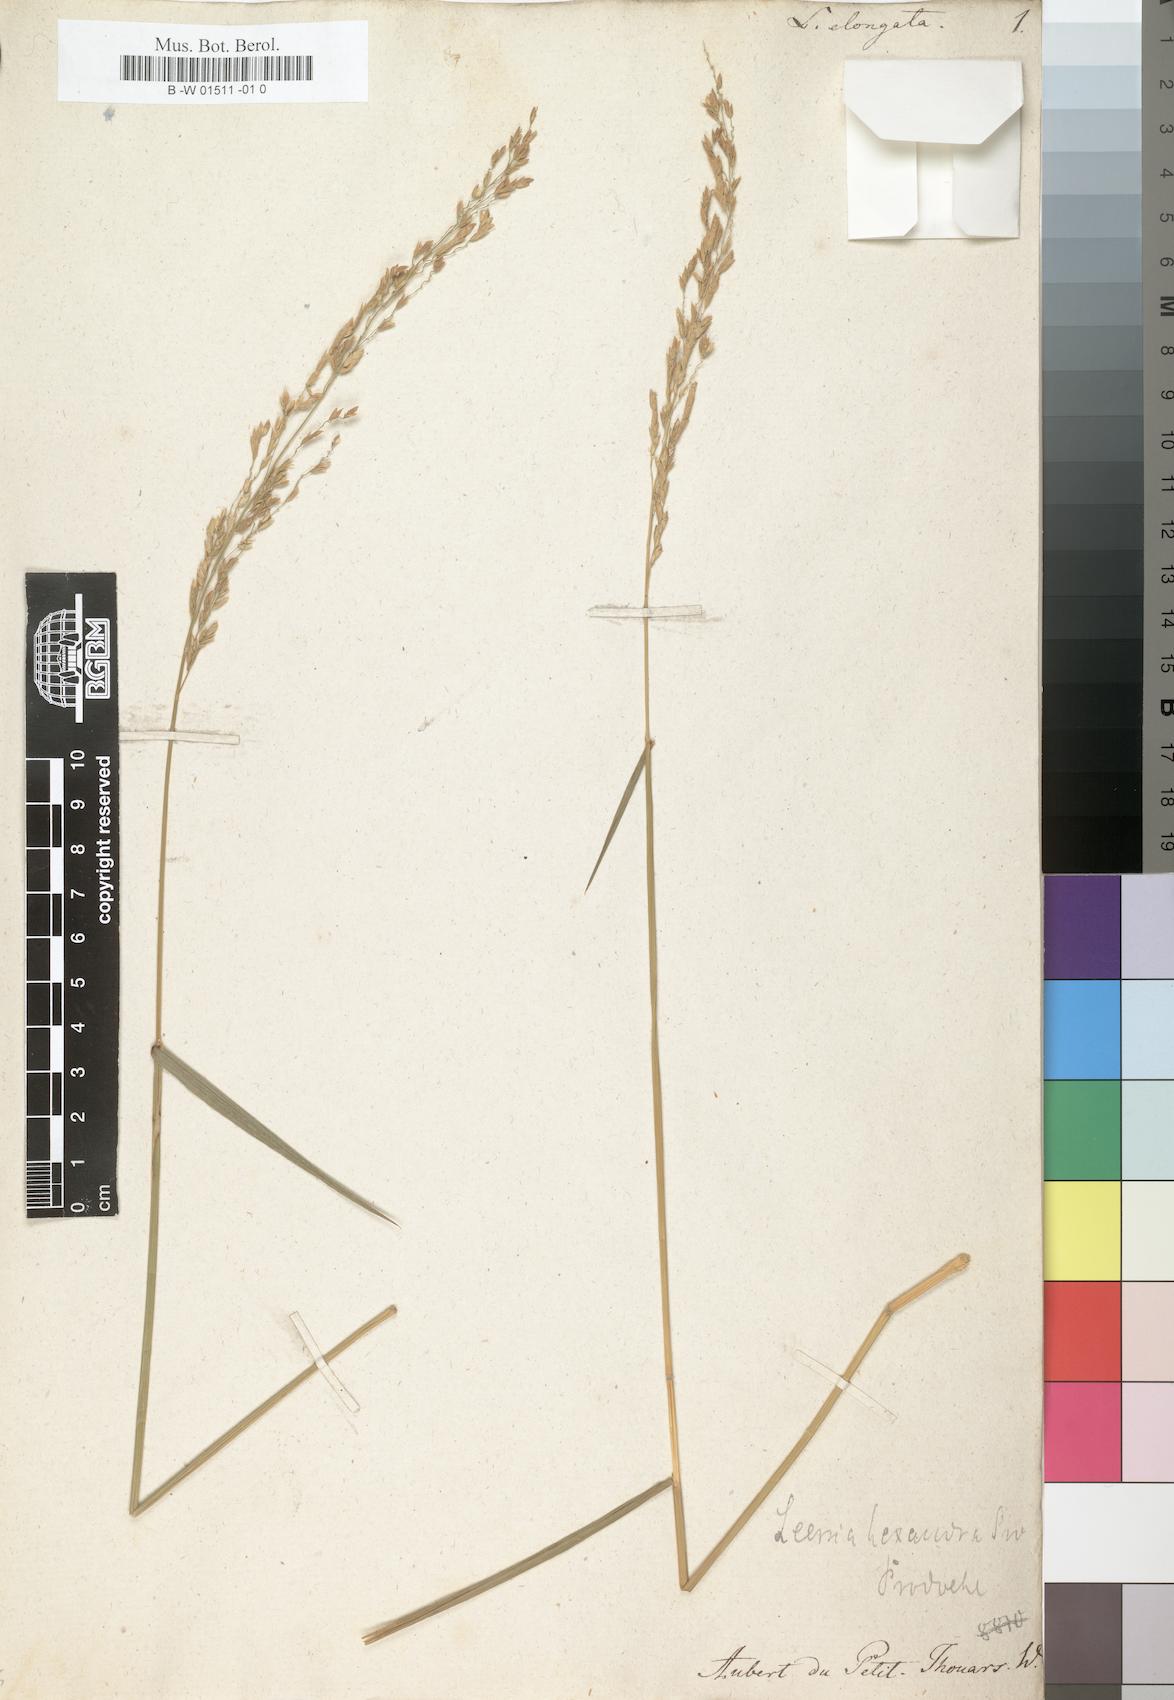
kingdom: Plantae
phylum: Tracheophyta
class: Liliopsida
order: Poales
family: Poaceae
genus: Leersia
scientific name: Leersia hexandra
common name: Southern cut grass
